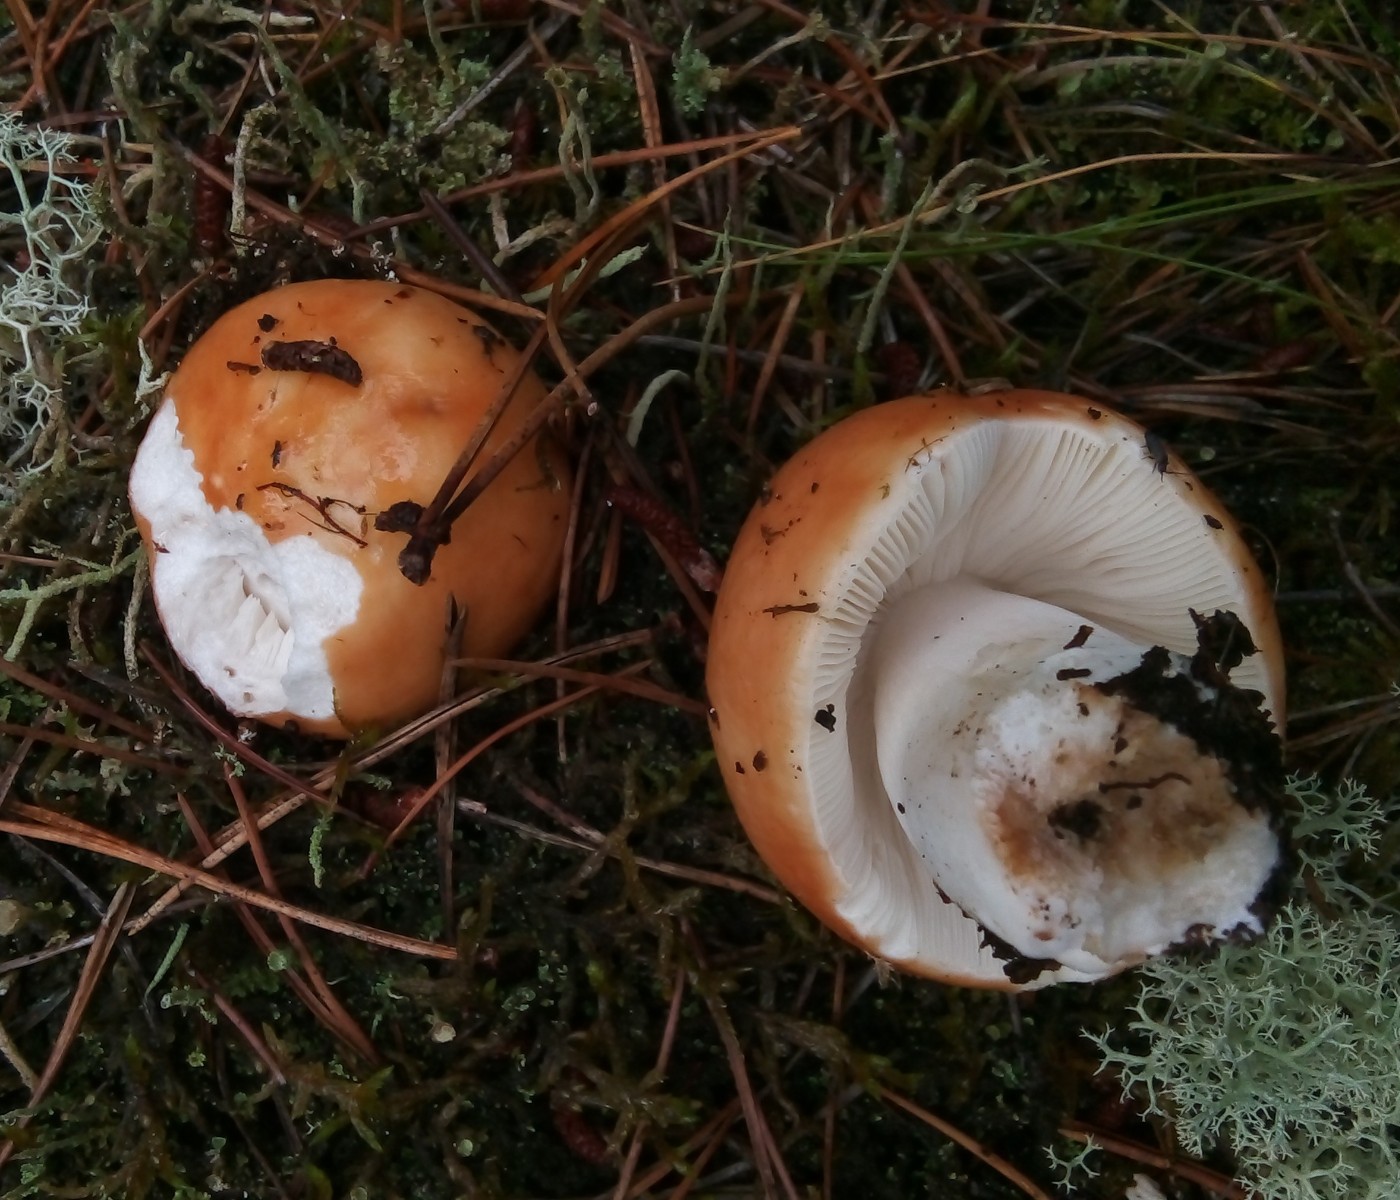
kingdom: Fungi
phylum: Basidiomycota
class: Agaricomycetes
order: Russulales
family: Russulaceae
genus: Russula
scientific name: Russula
